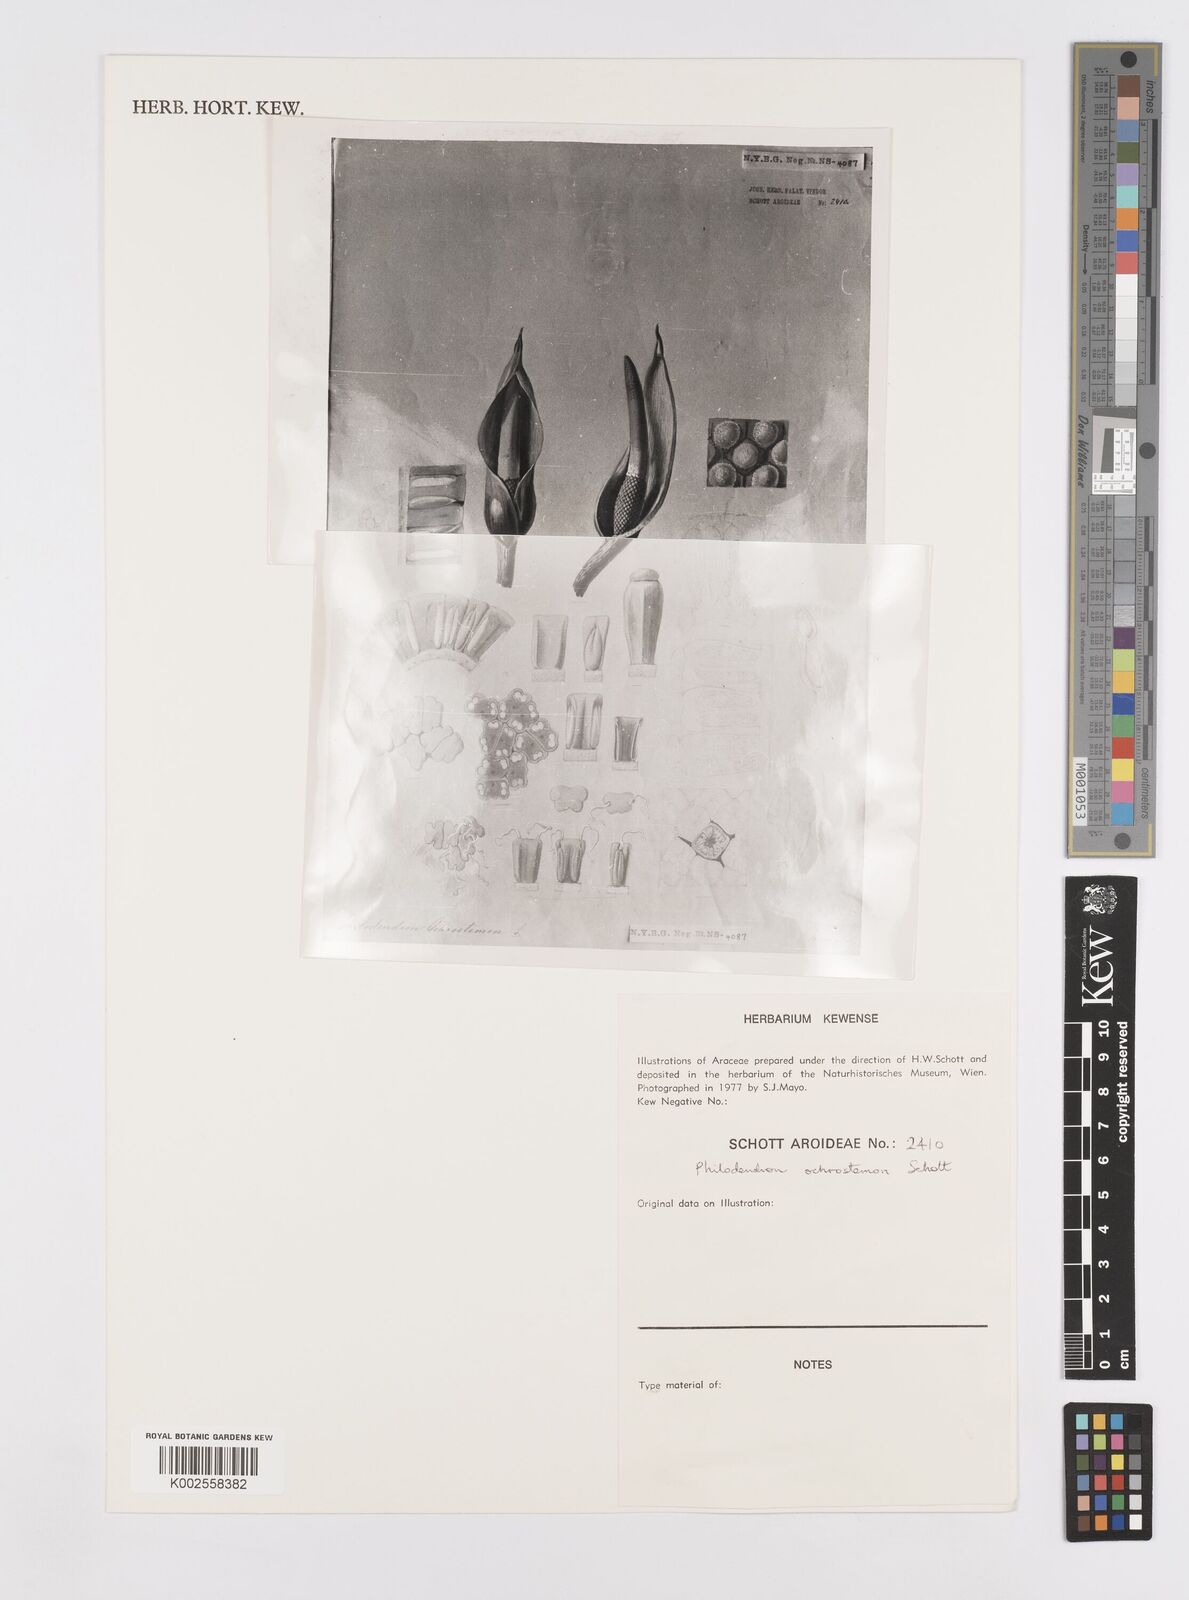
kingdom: Plantae
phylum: Tracheophyta
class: Liliopsida
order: Alismatales
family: Araceae
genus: Philodendron
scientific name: Philodendron ochrostemon
